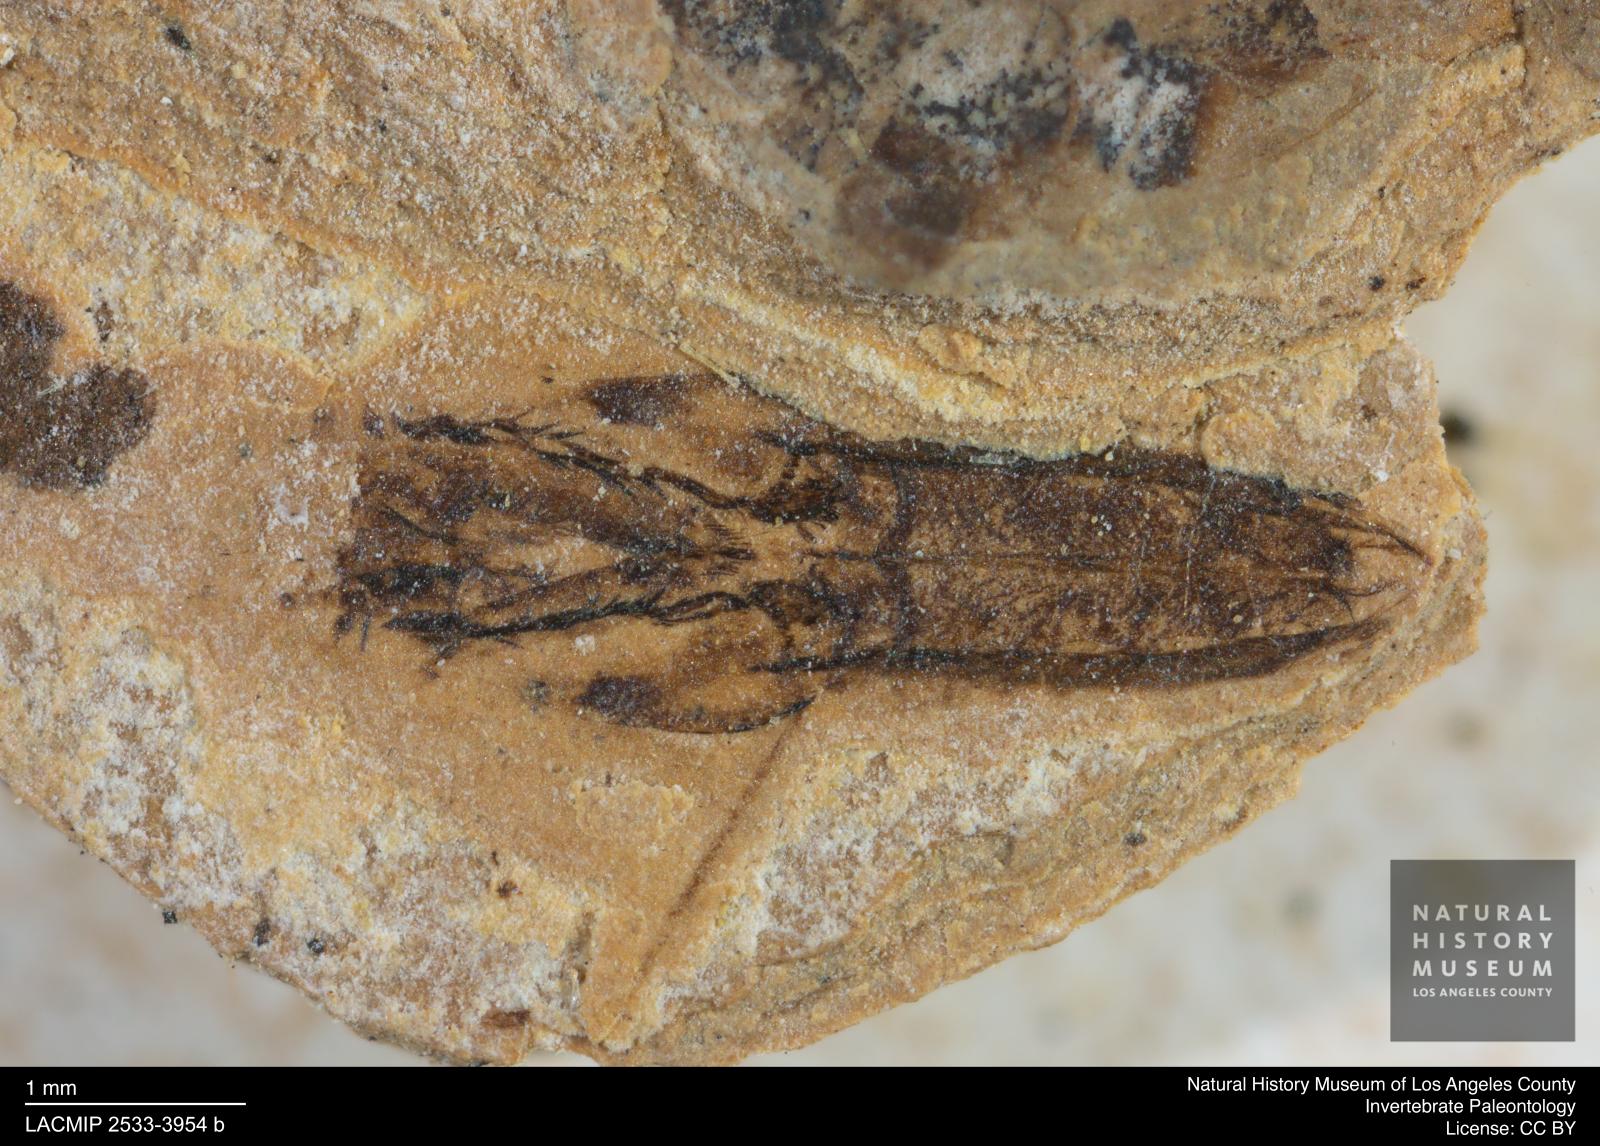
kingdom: Animalia
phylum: Arthropoda
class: Insecta
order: Hemiptera
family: Notonectidae
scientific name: Notonectidae
